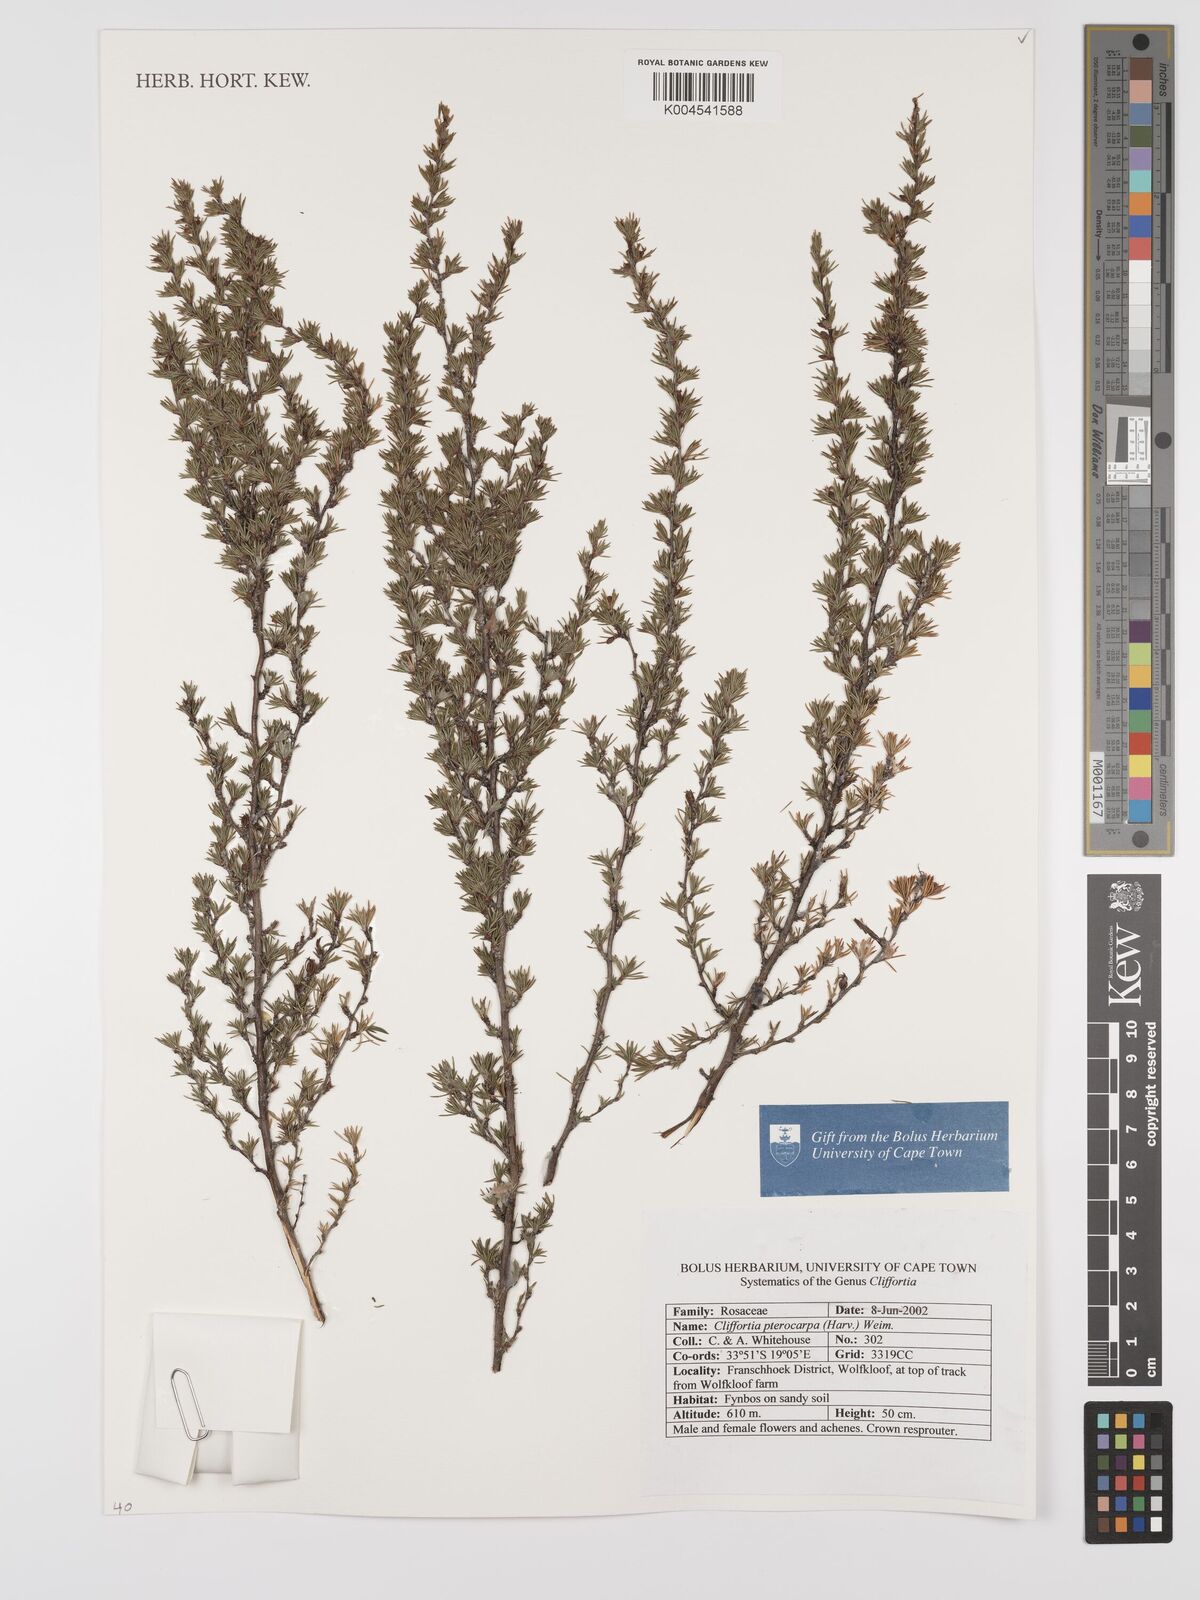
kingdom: Plantae
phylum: Tracheophyta
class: Magnoliopsida
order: Rosales
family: Rosaceae
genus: Cliffortia
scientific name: Cliffortia pterocarpa
